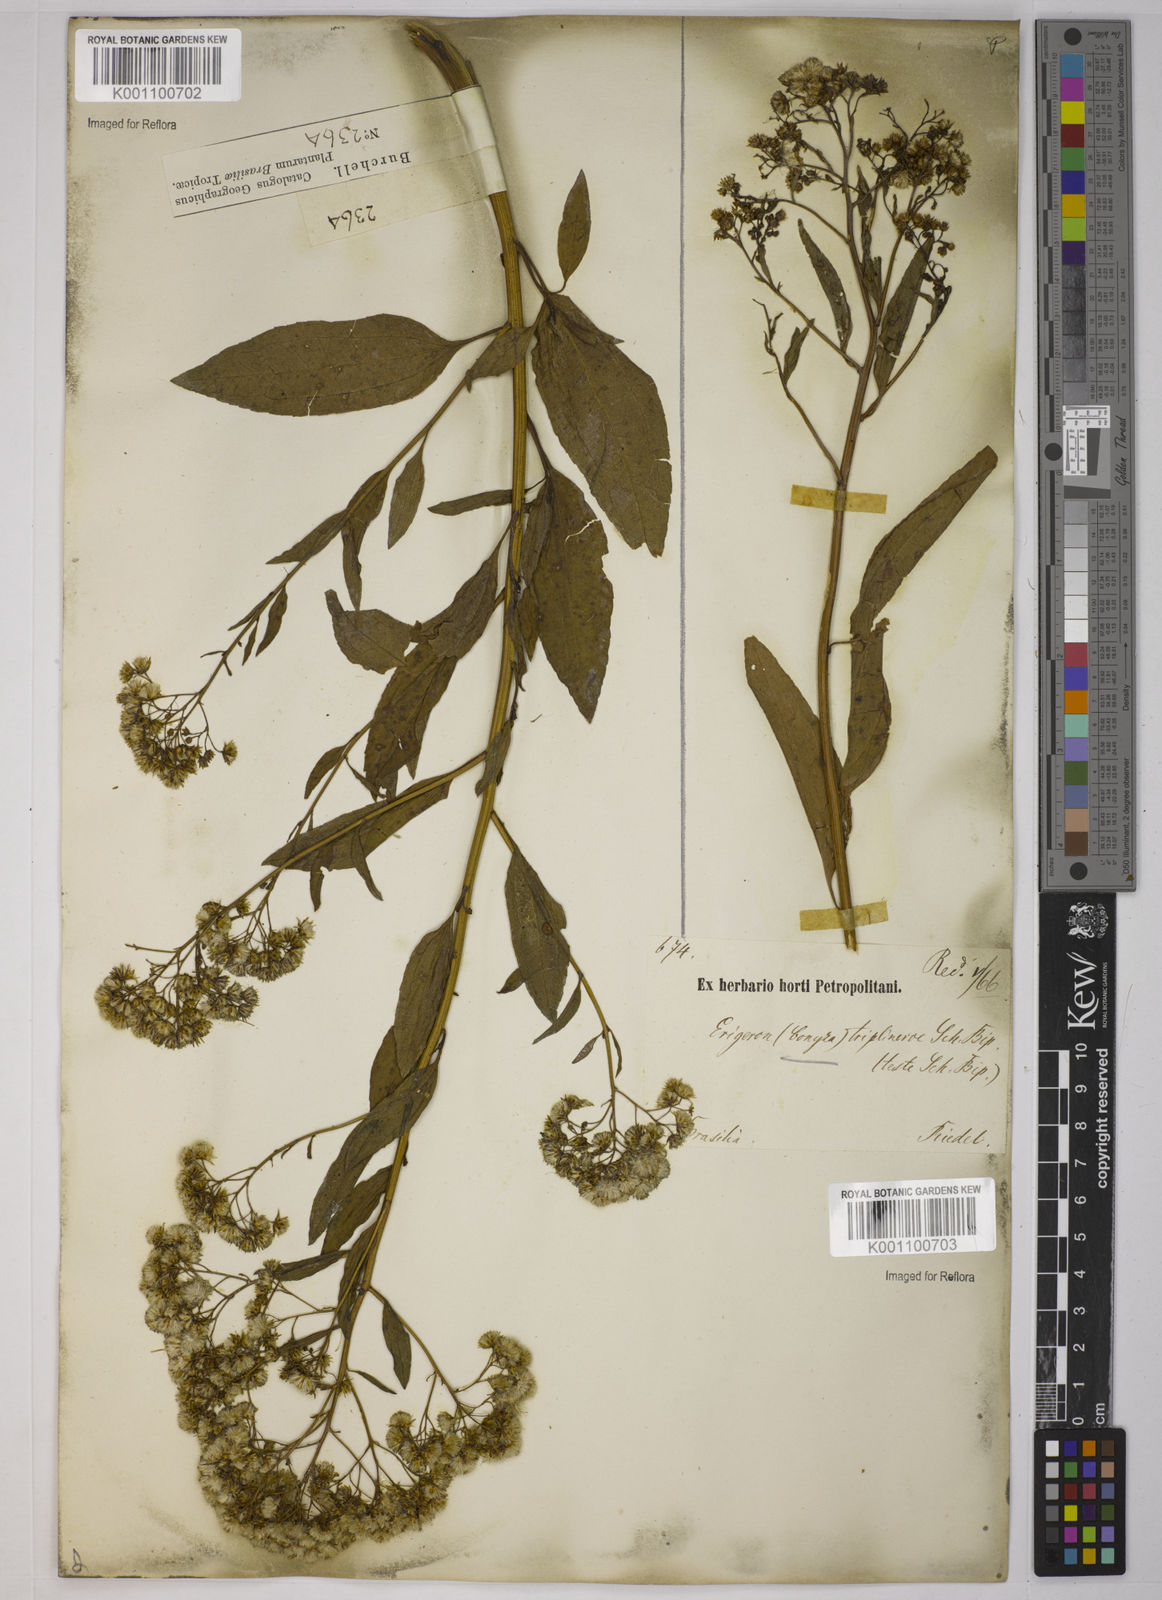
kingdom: Plantae
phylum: Tracheophyta
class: Magnoliopsida
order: Asterales
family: Asteraceae
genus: Archibaccharis
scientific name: Archibaccharis vulneraria
